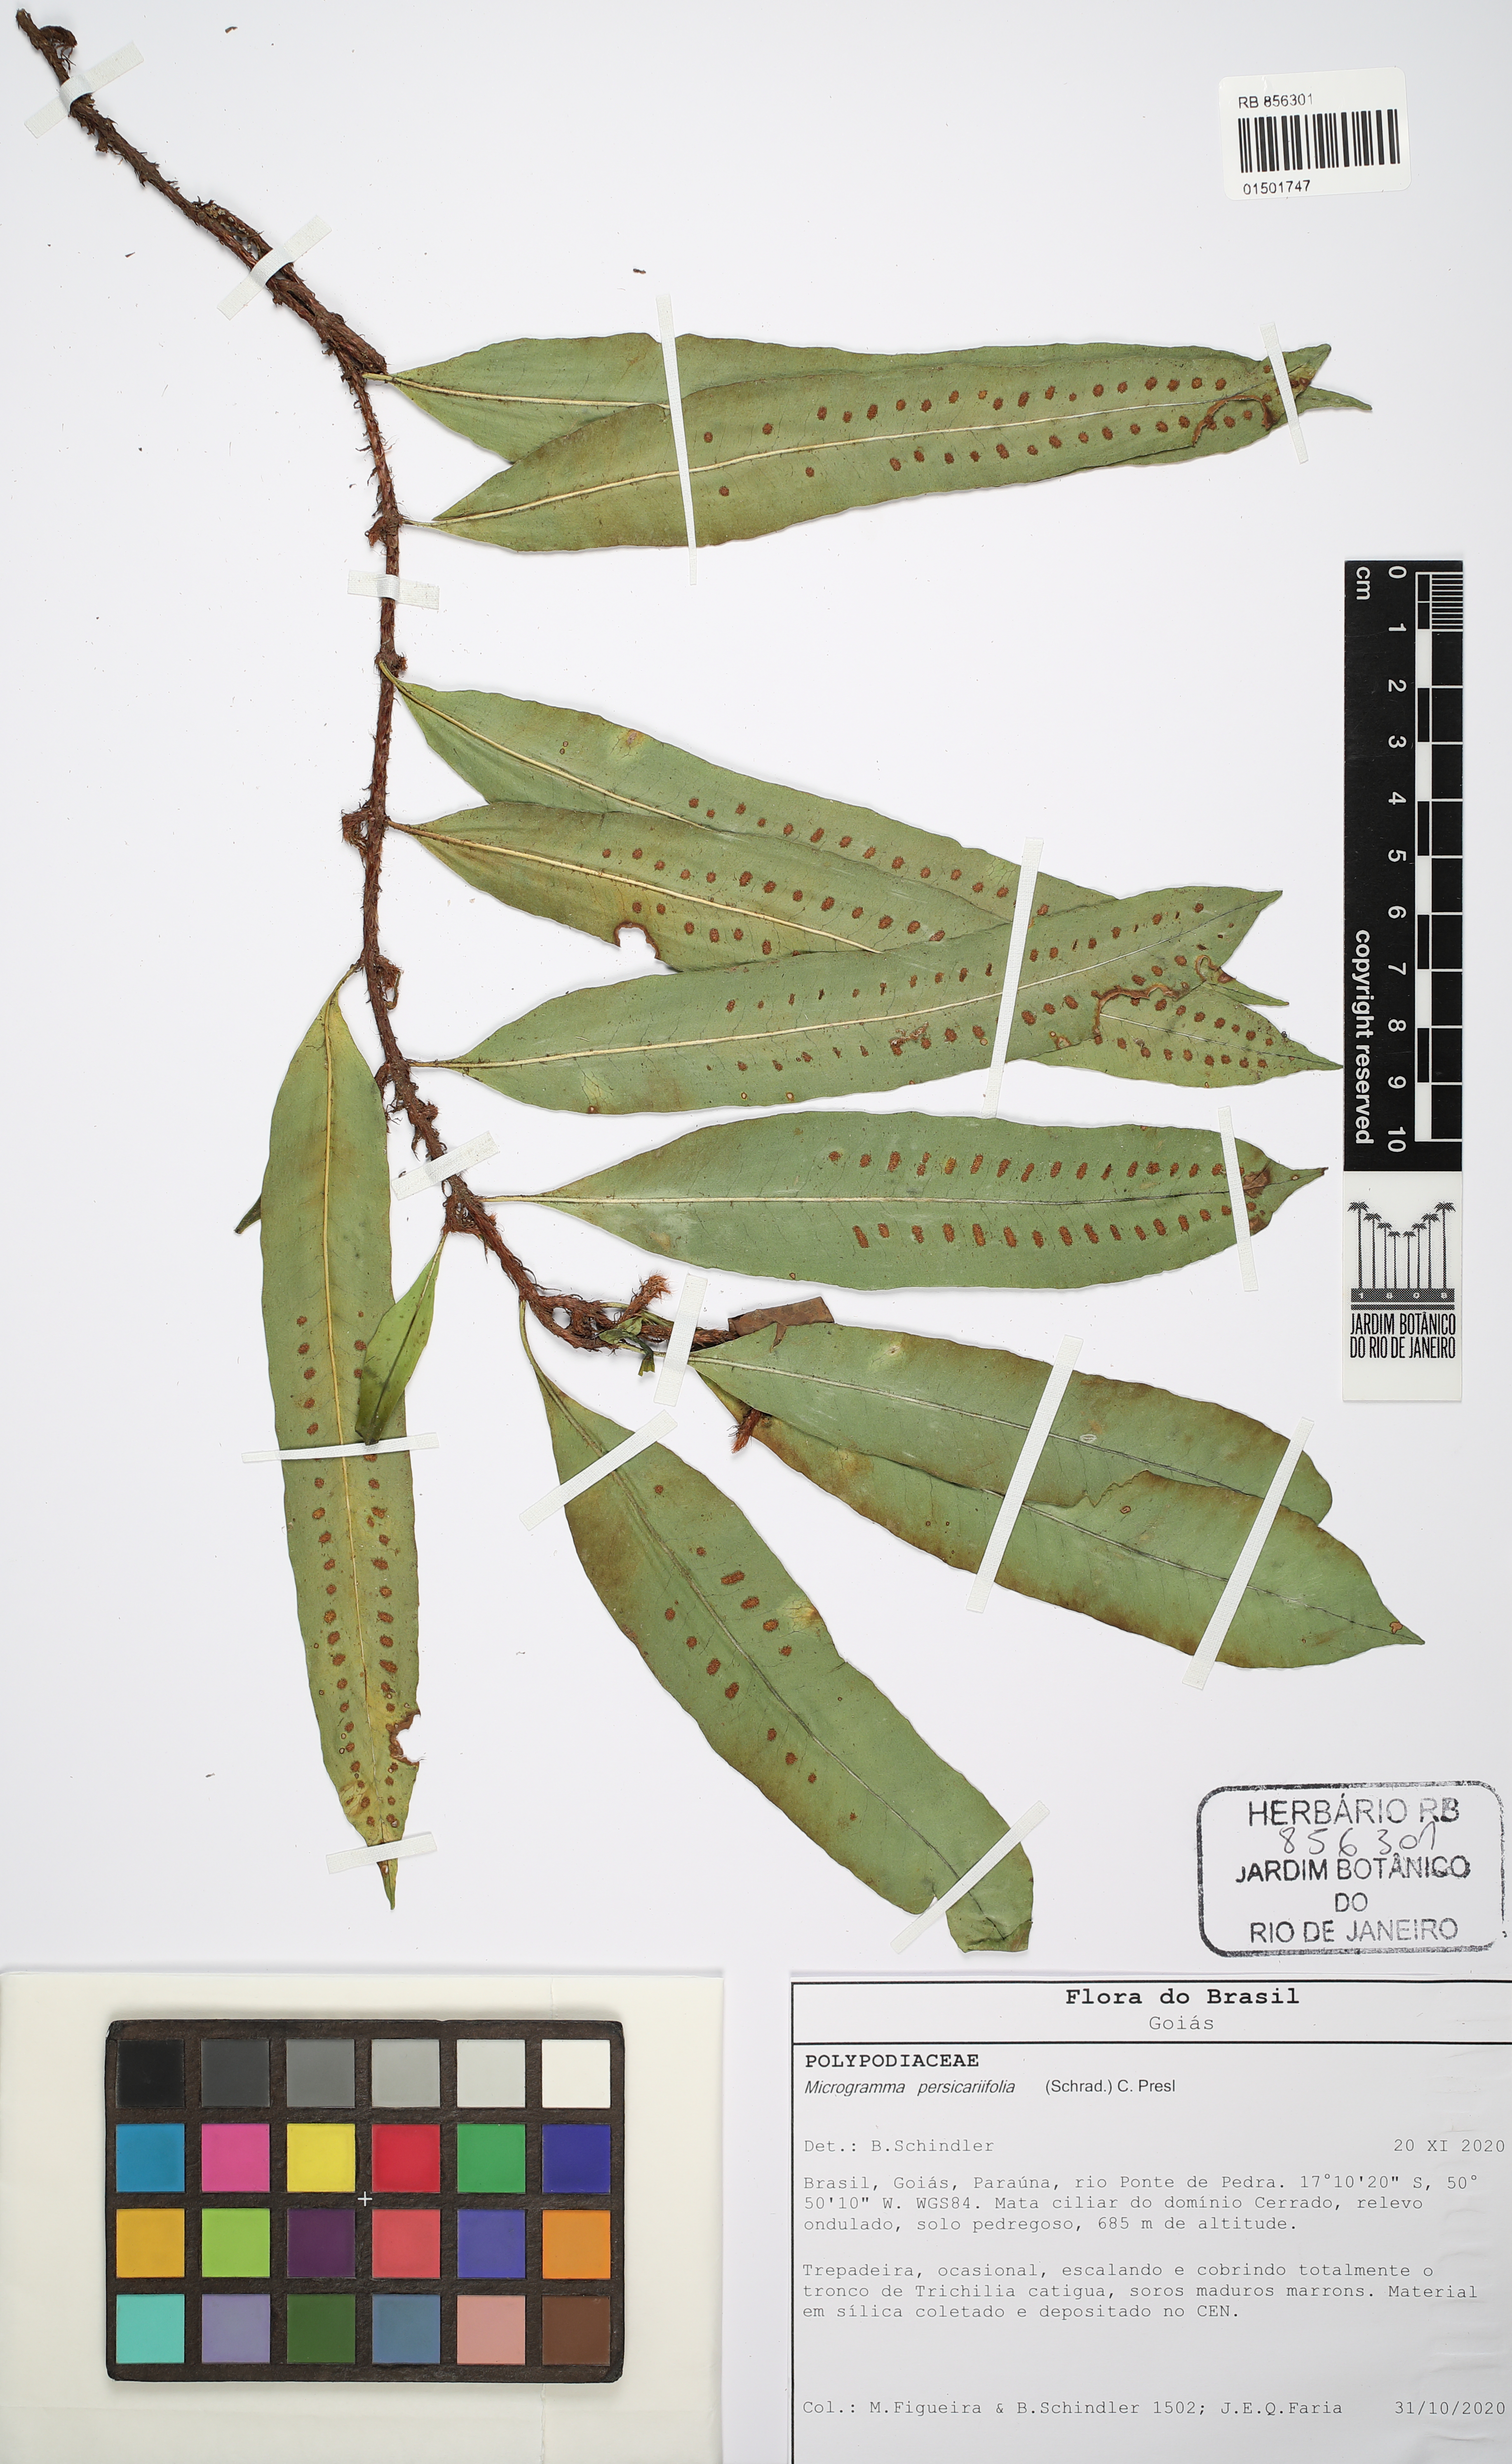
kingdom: Plantae
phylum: Tracheophyta
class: Polypodiopsida
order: Polypodiales
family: Polypodiaceae
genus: Microgramma
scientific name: Microgramma persicariifolia
